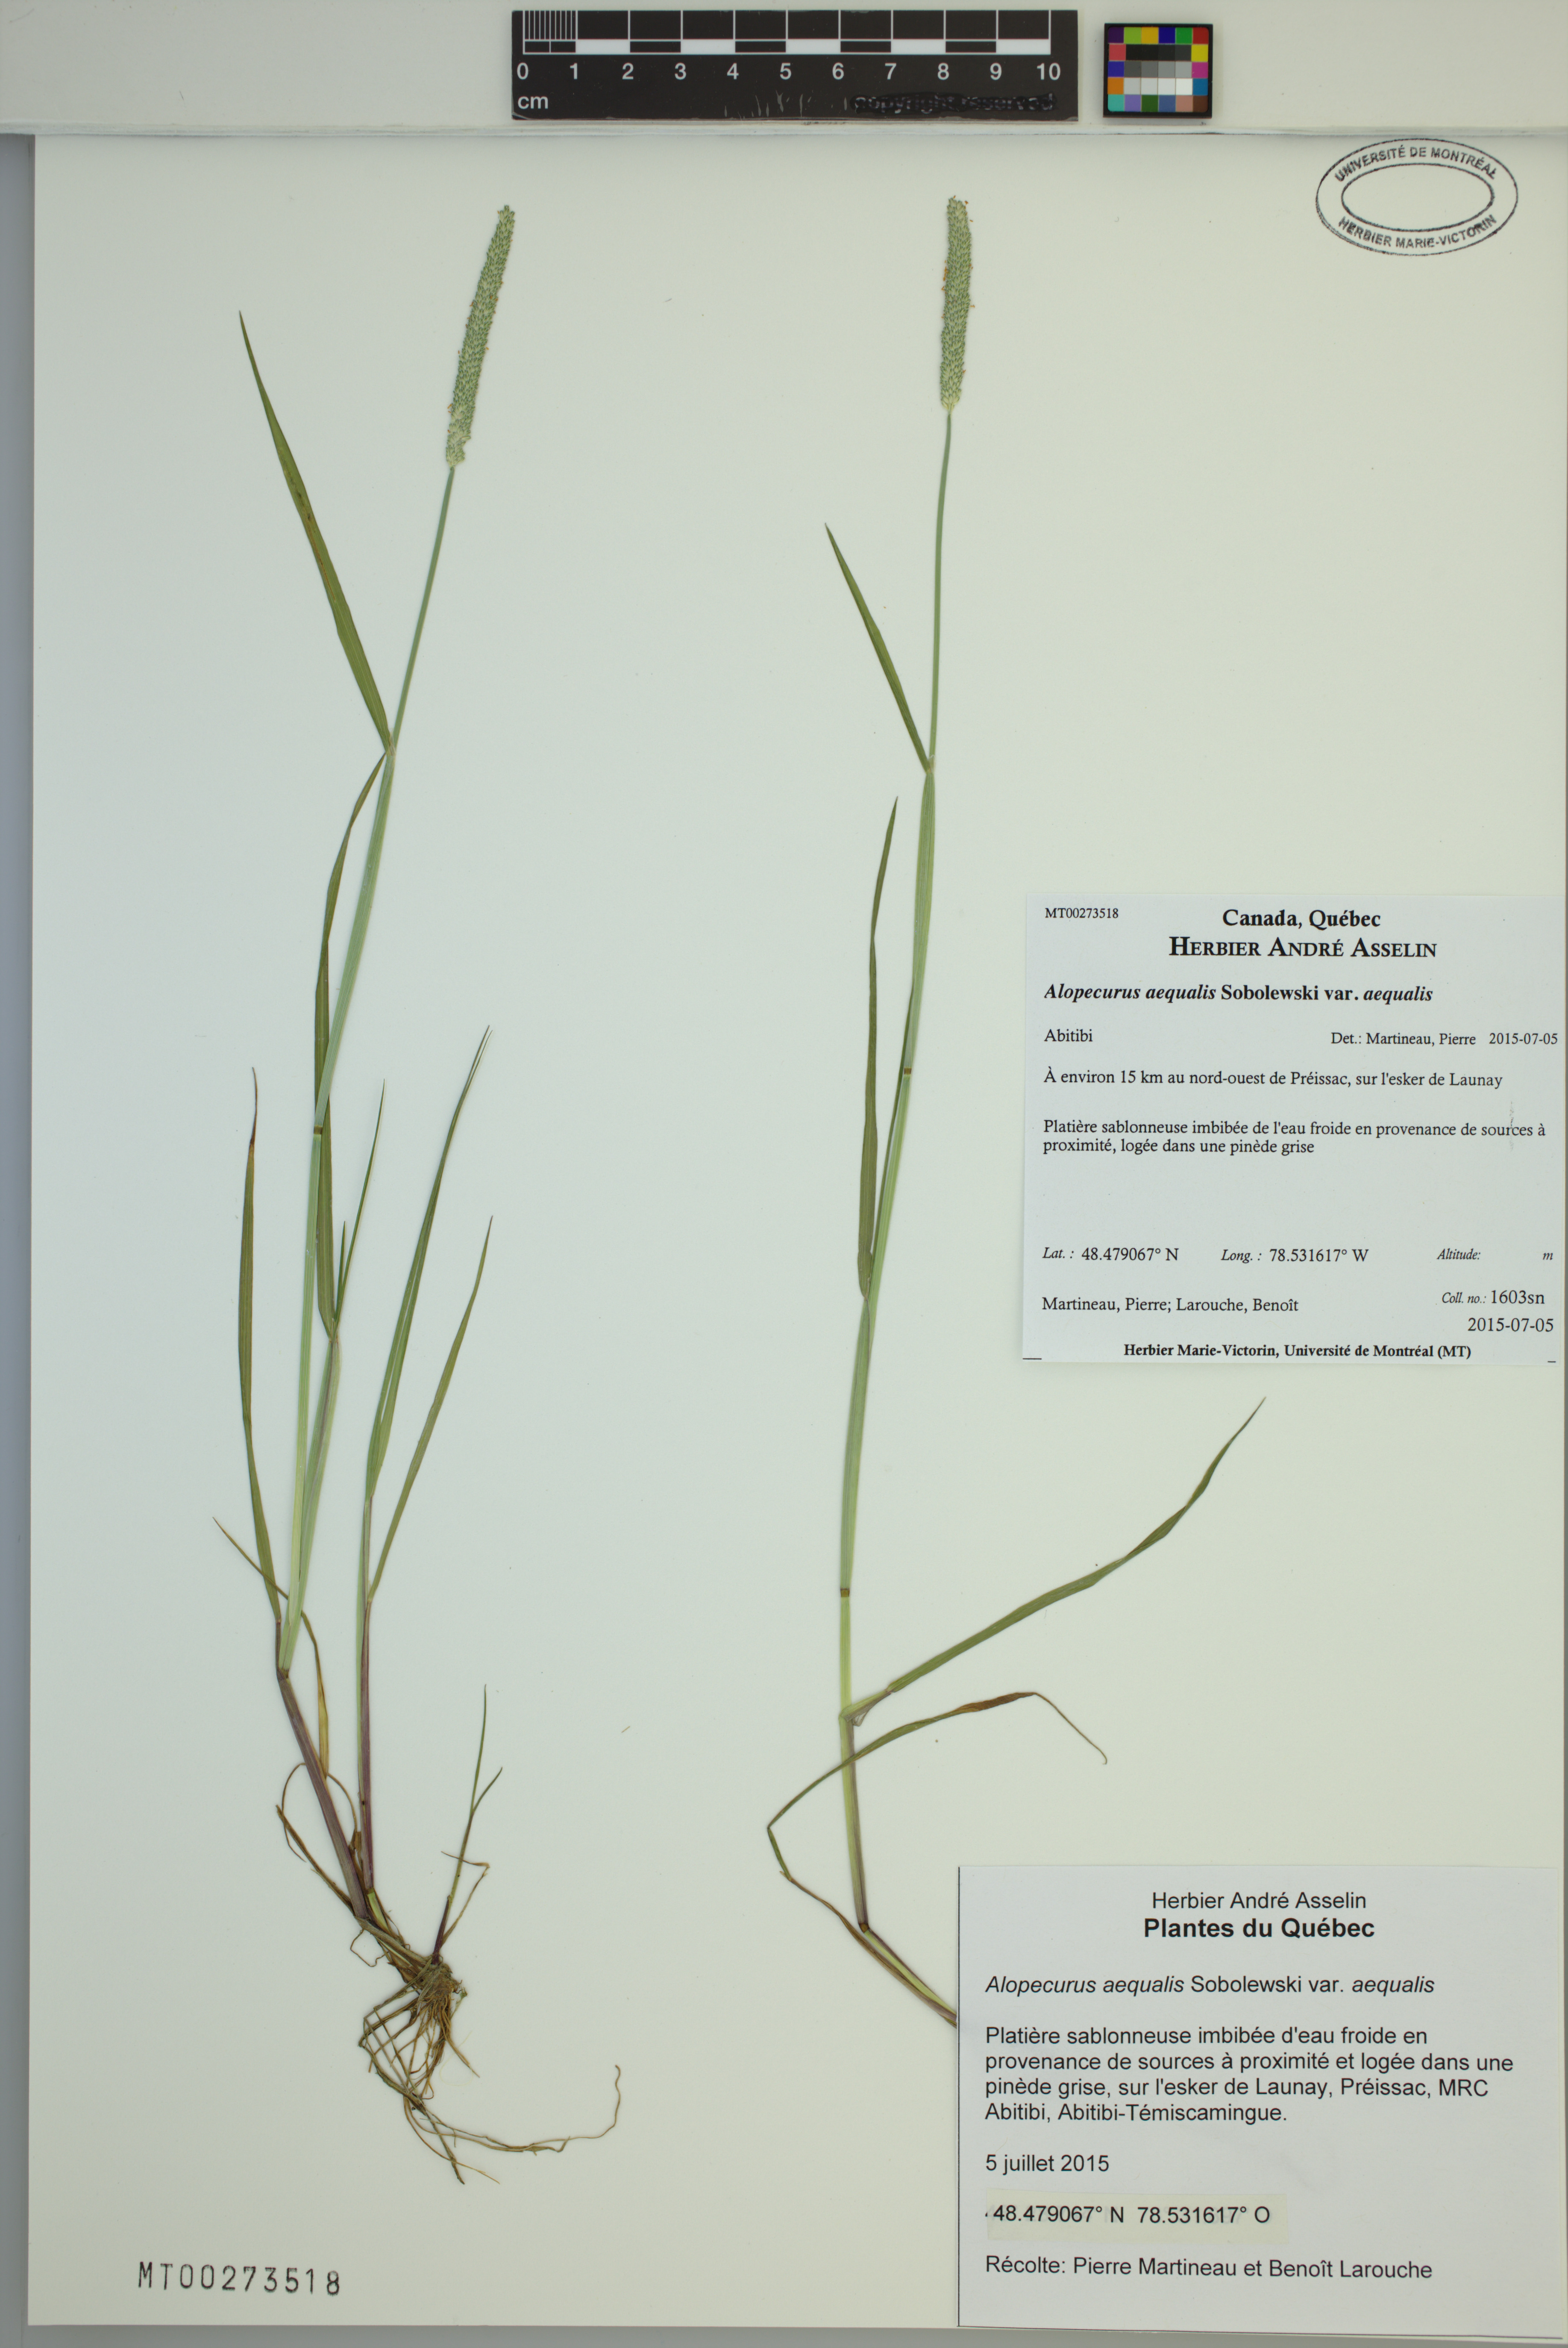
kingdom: Plantae
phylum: Tracheophyta
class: Liliopsida
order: Poales
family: Poaceae
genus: Alopecurus
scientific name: Alopecurus aequalis
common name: Orange foxtail
